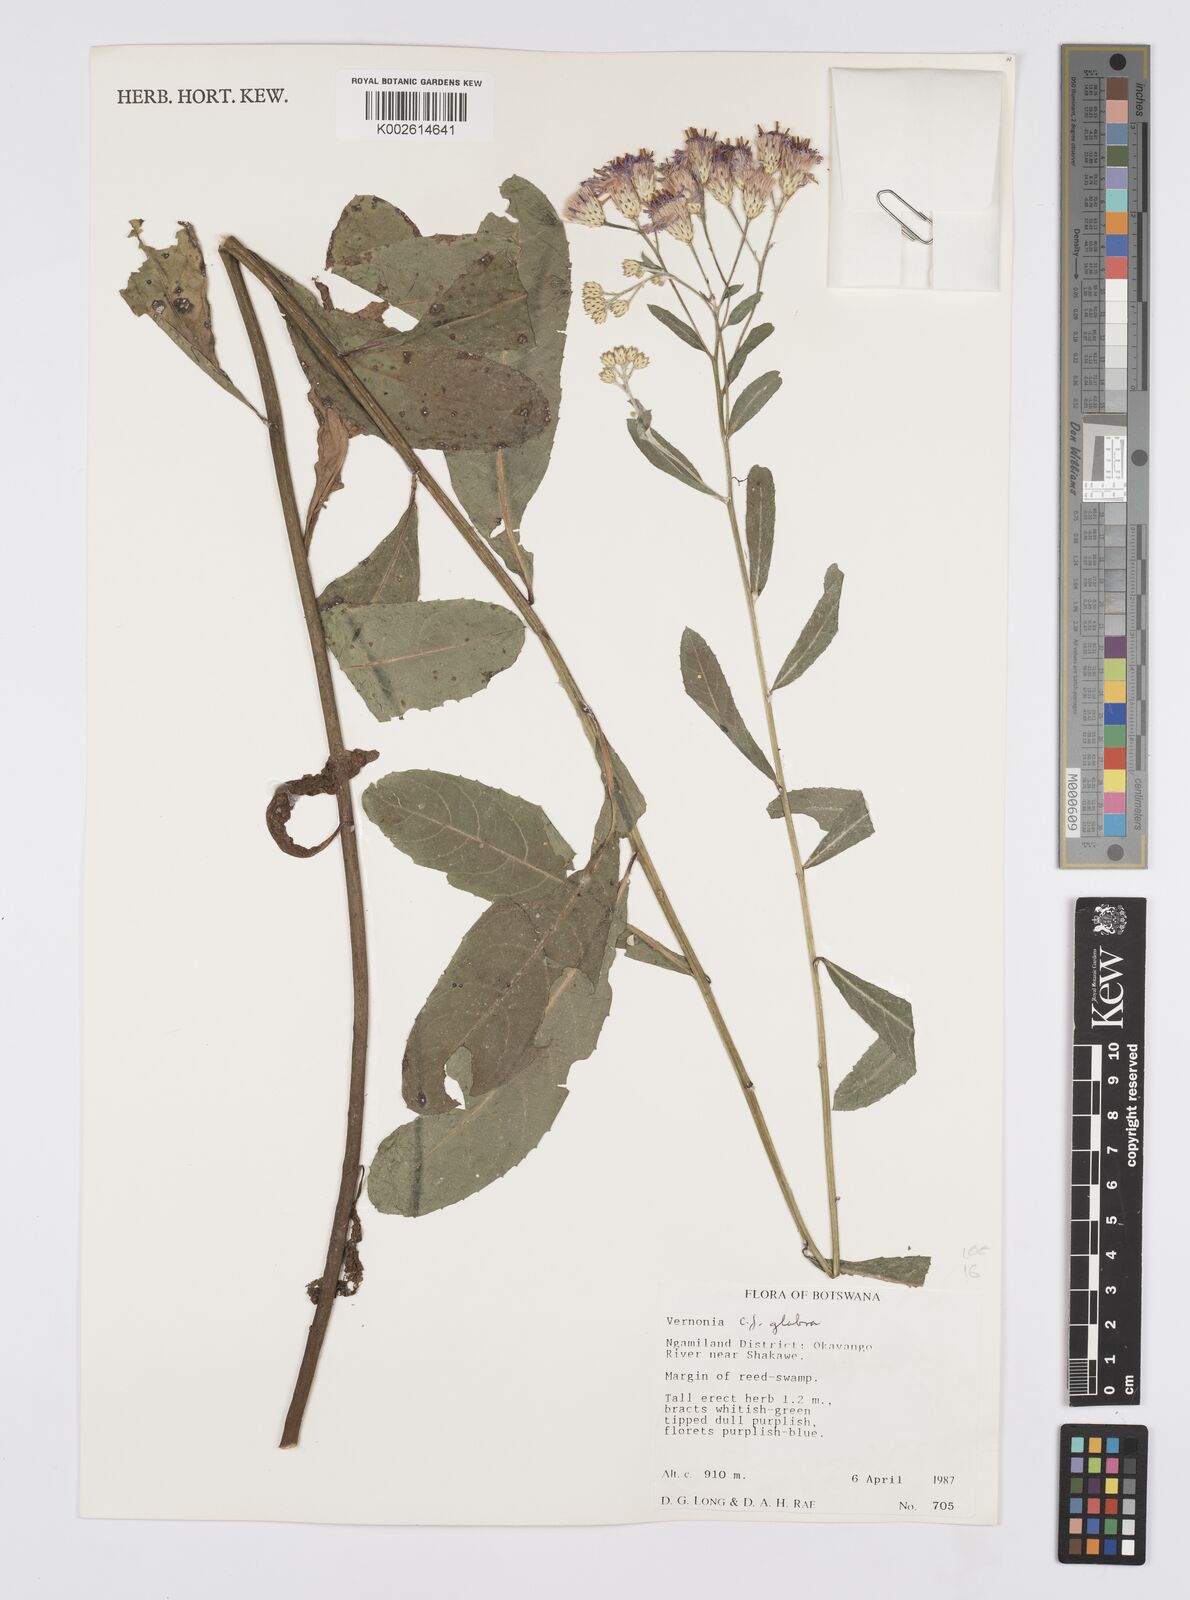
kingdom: Plantae
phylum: Tracheophyta
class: Magnoliopsida
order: Asterales
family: Asteraceae
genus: Linzia
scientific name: Linzia glabra
